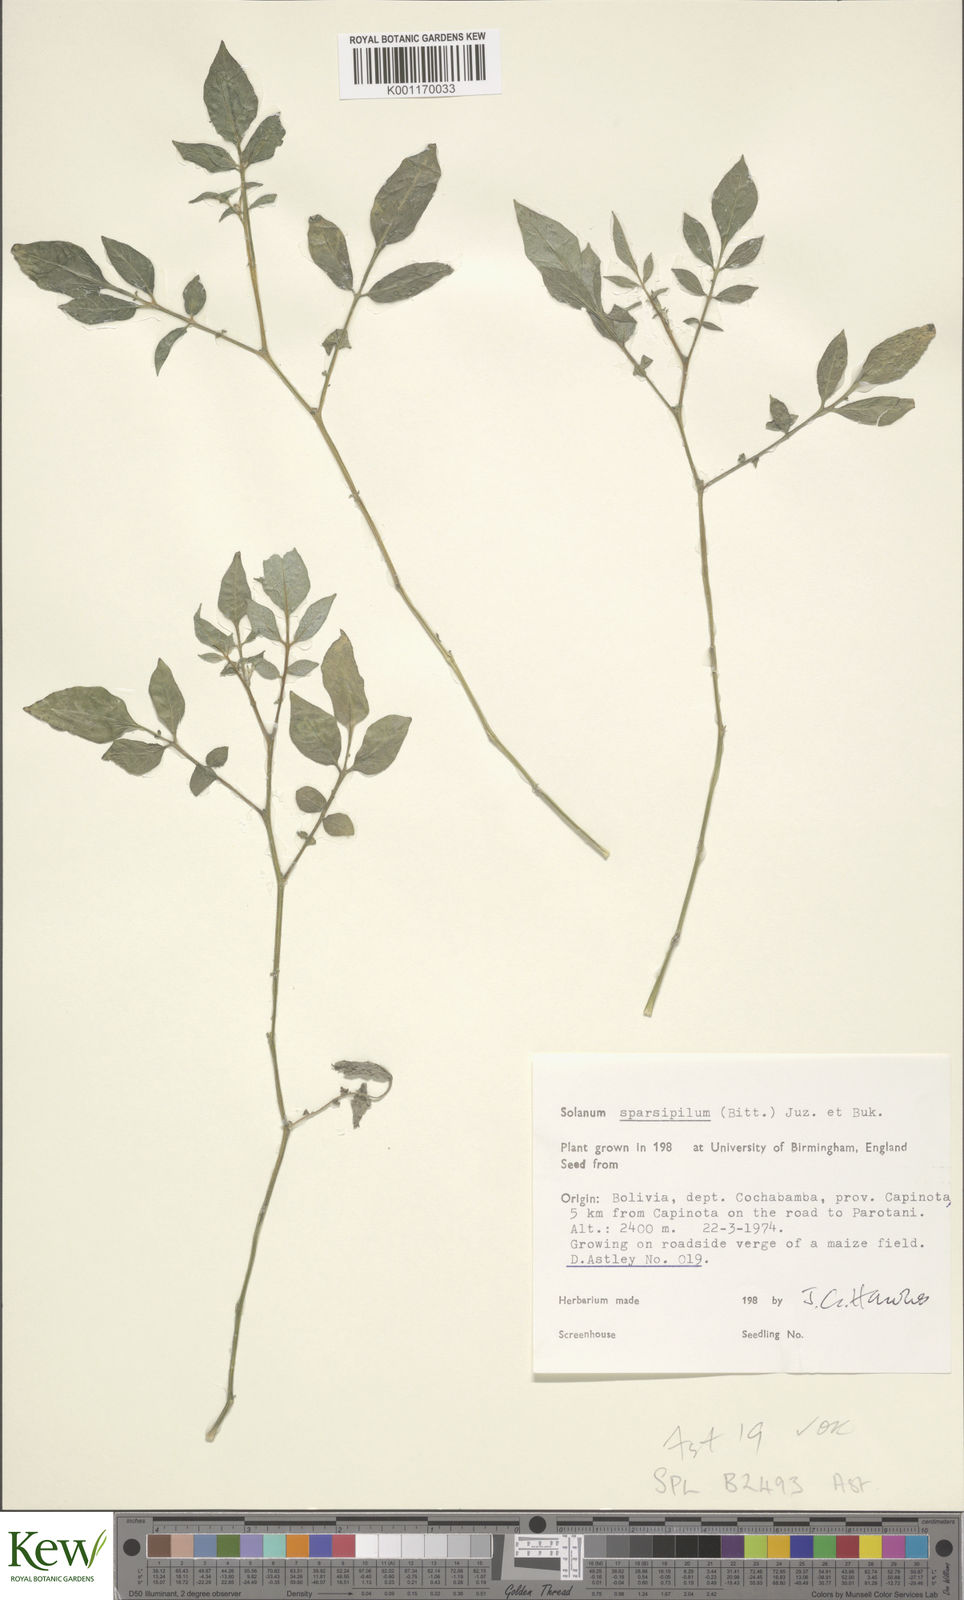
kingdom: Plantae
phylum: Tracheophyta
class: Magnoliopsida
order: Solanales
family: Solanaceae
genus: Solanum
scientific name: Solanum brevicaule
